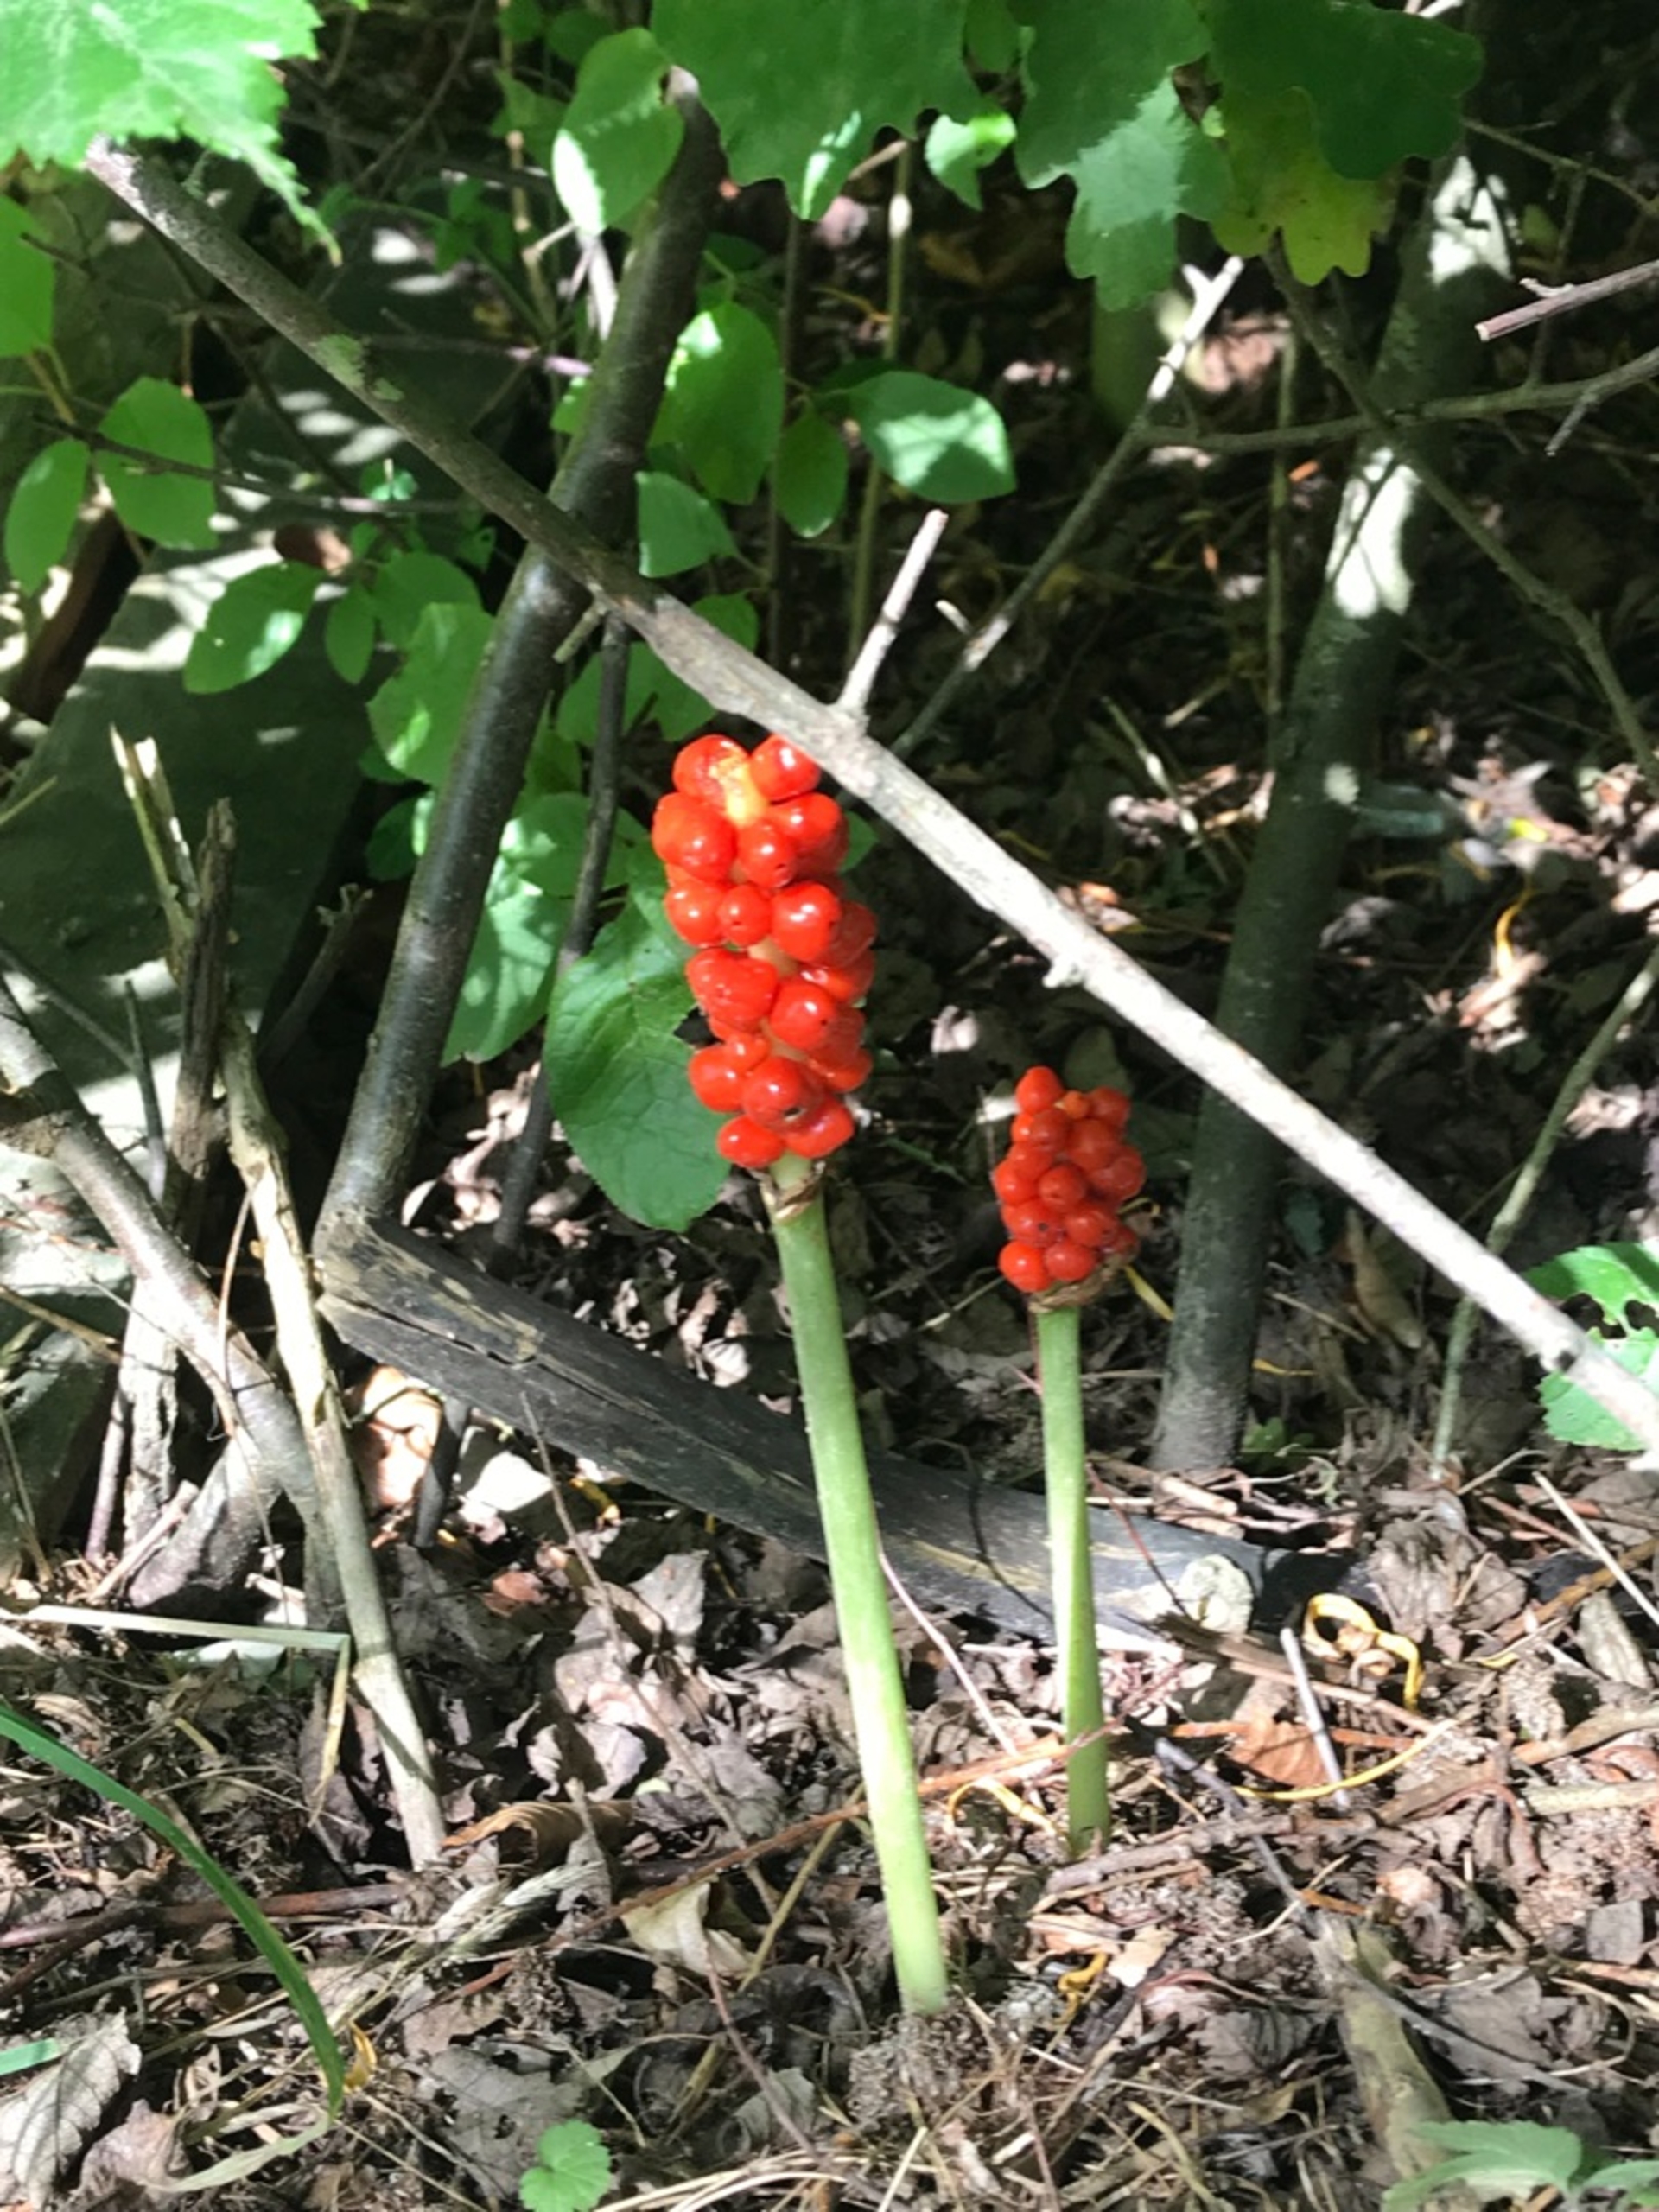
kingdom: Plantae
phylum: Tracheophyta
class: Liliopsida
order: Alismatales
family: Araceae
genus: Arum
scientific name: Arum cylindraceum
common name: Dansk arum
